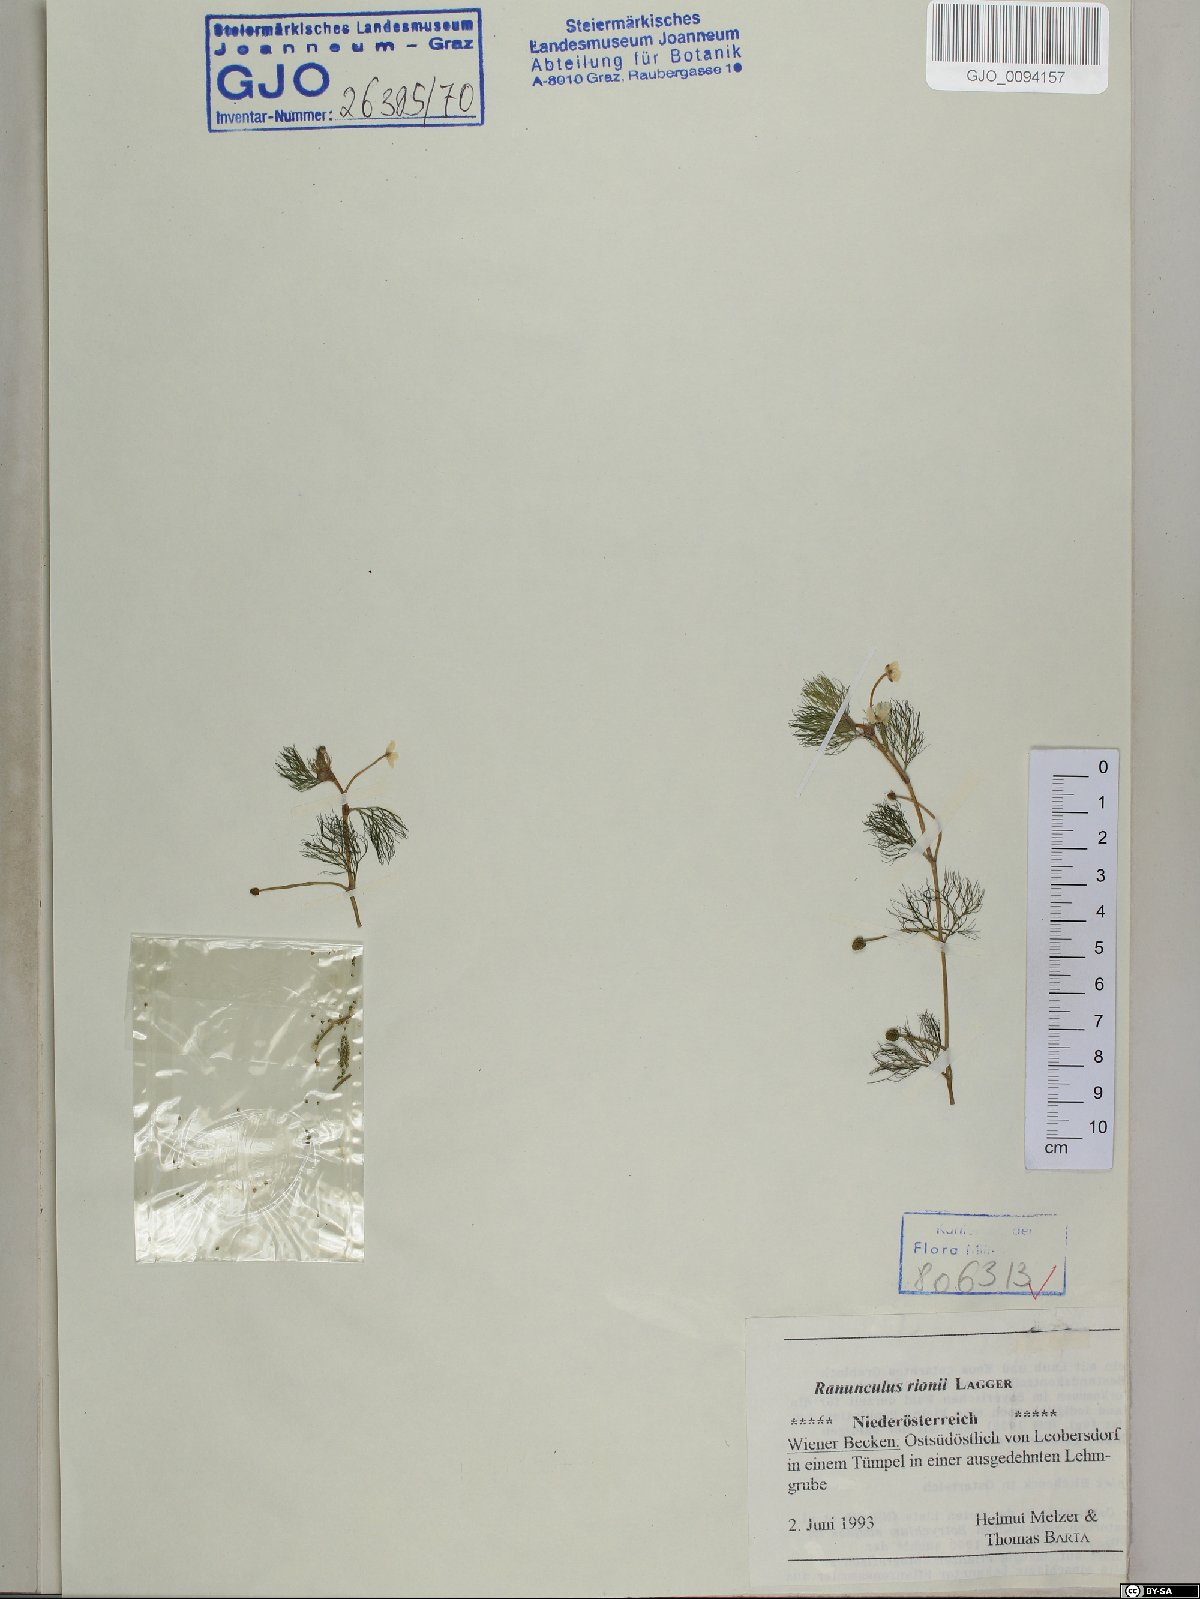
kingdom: Plantae
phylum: Tracheophyta
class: Magnoliopsida
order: Ranunculales
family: Ranunculaceae
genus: Ranunculus
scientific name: Ranunculus rionii
